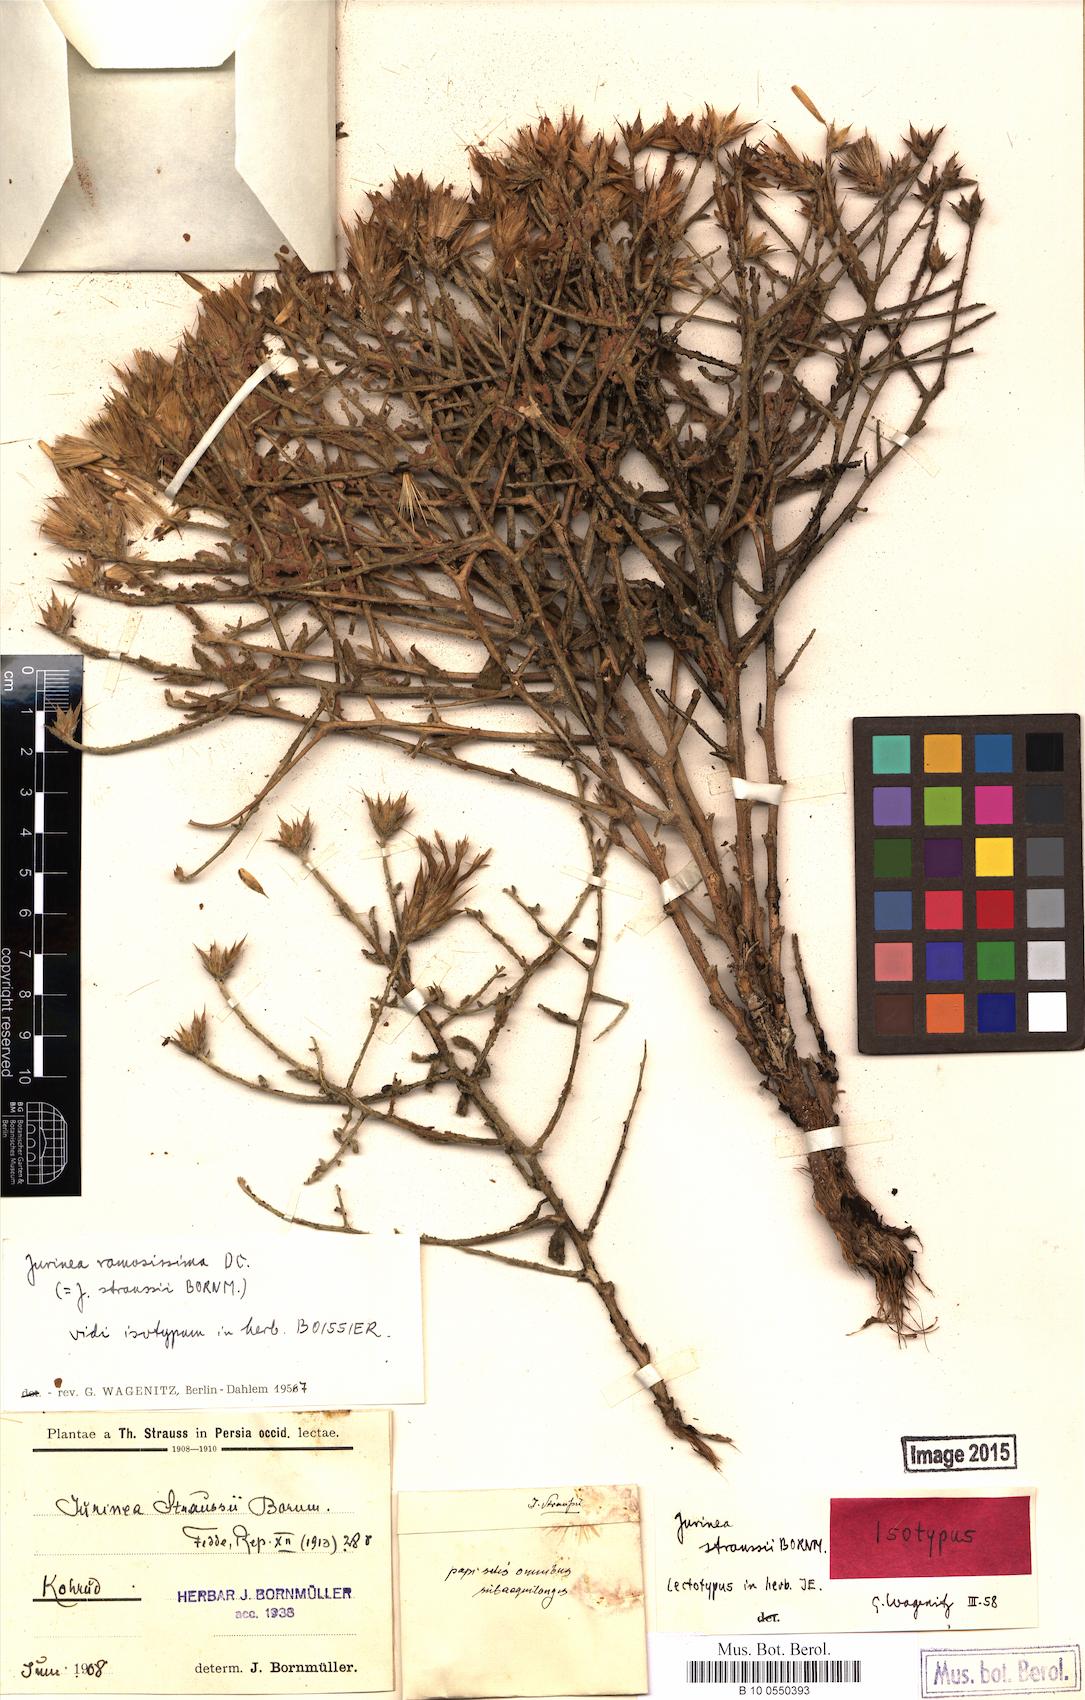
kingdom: Plantae
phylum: Tracheophyta
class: Magnoliopsida
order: Asterales
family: Asteraceae
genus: Jurinea
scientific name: Jurinea ramosissima
